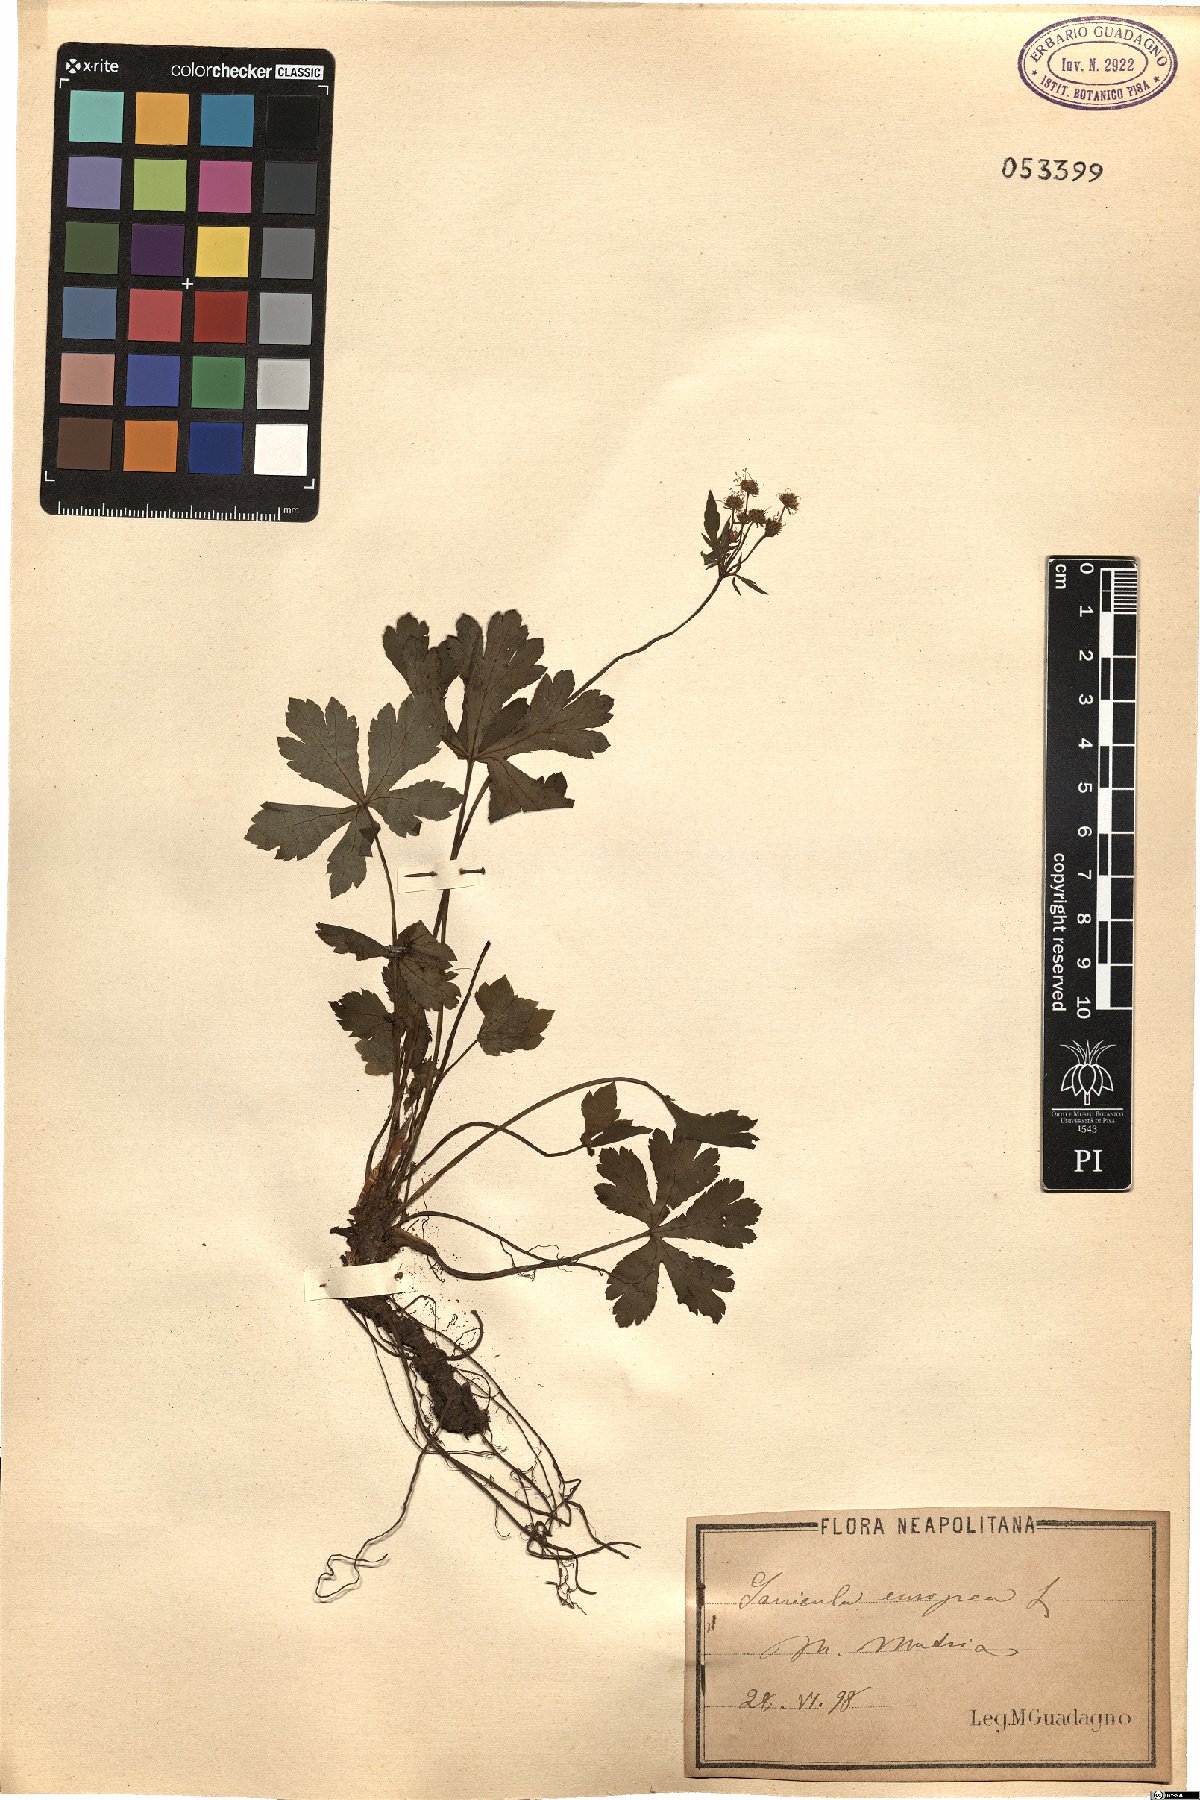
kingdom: Plantae
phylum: Tracheophyta
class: Magnoliopsida
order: Apiales
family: Apiaceae
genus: Sanicula
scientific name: Sanicula europaea
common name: Sanicle
